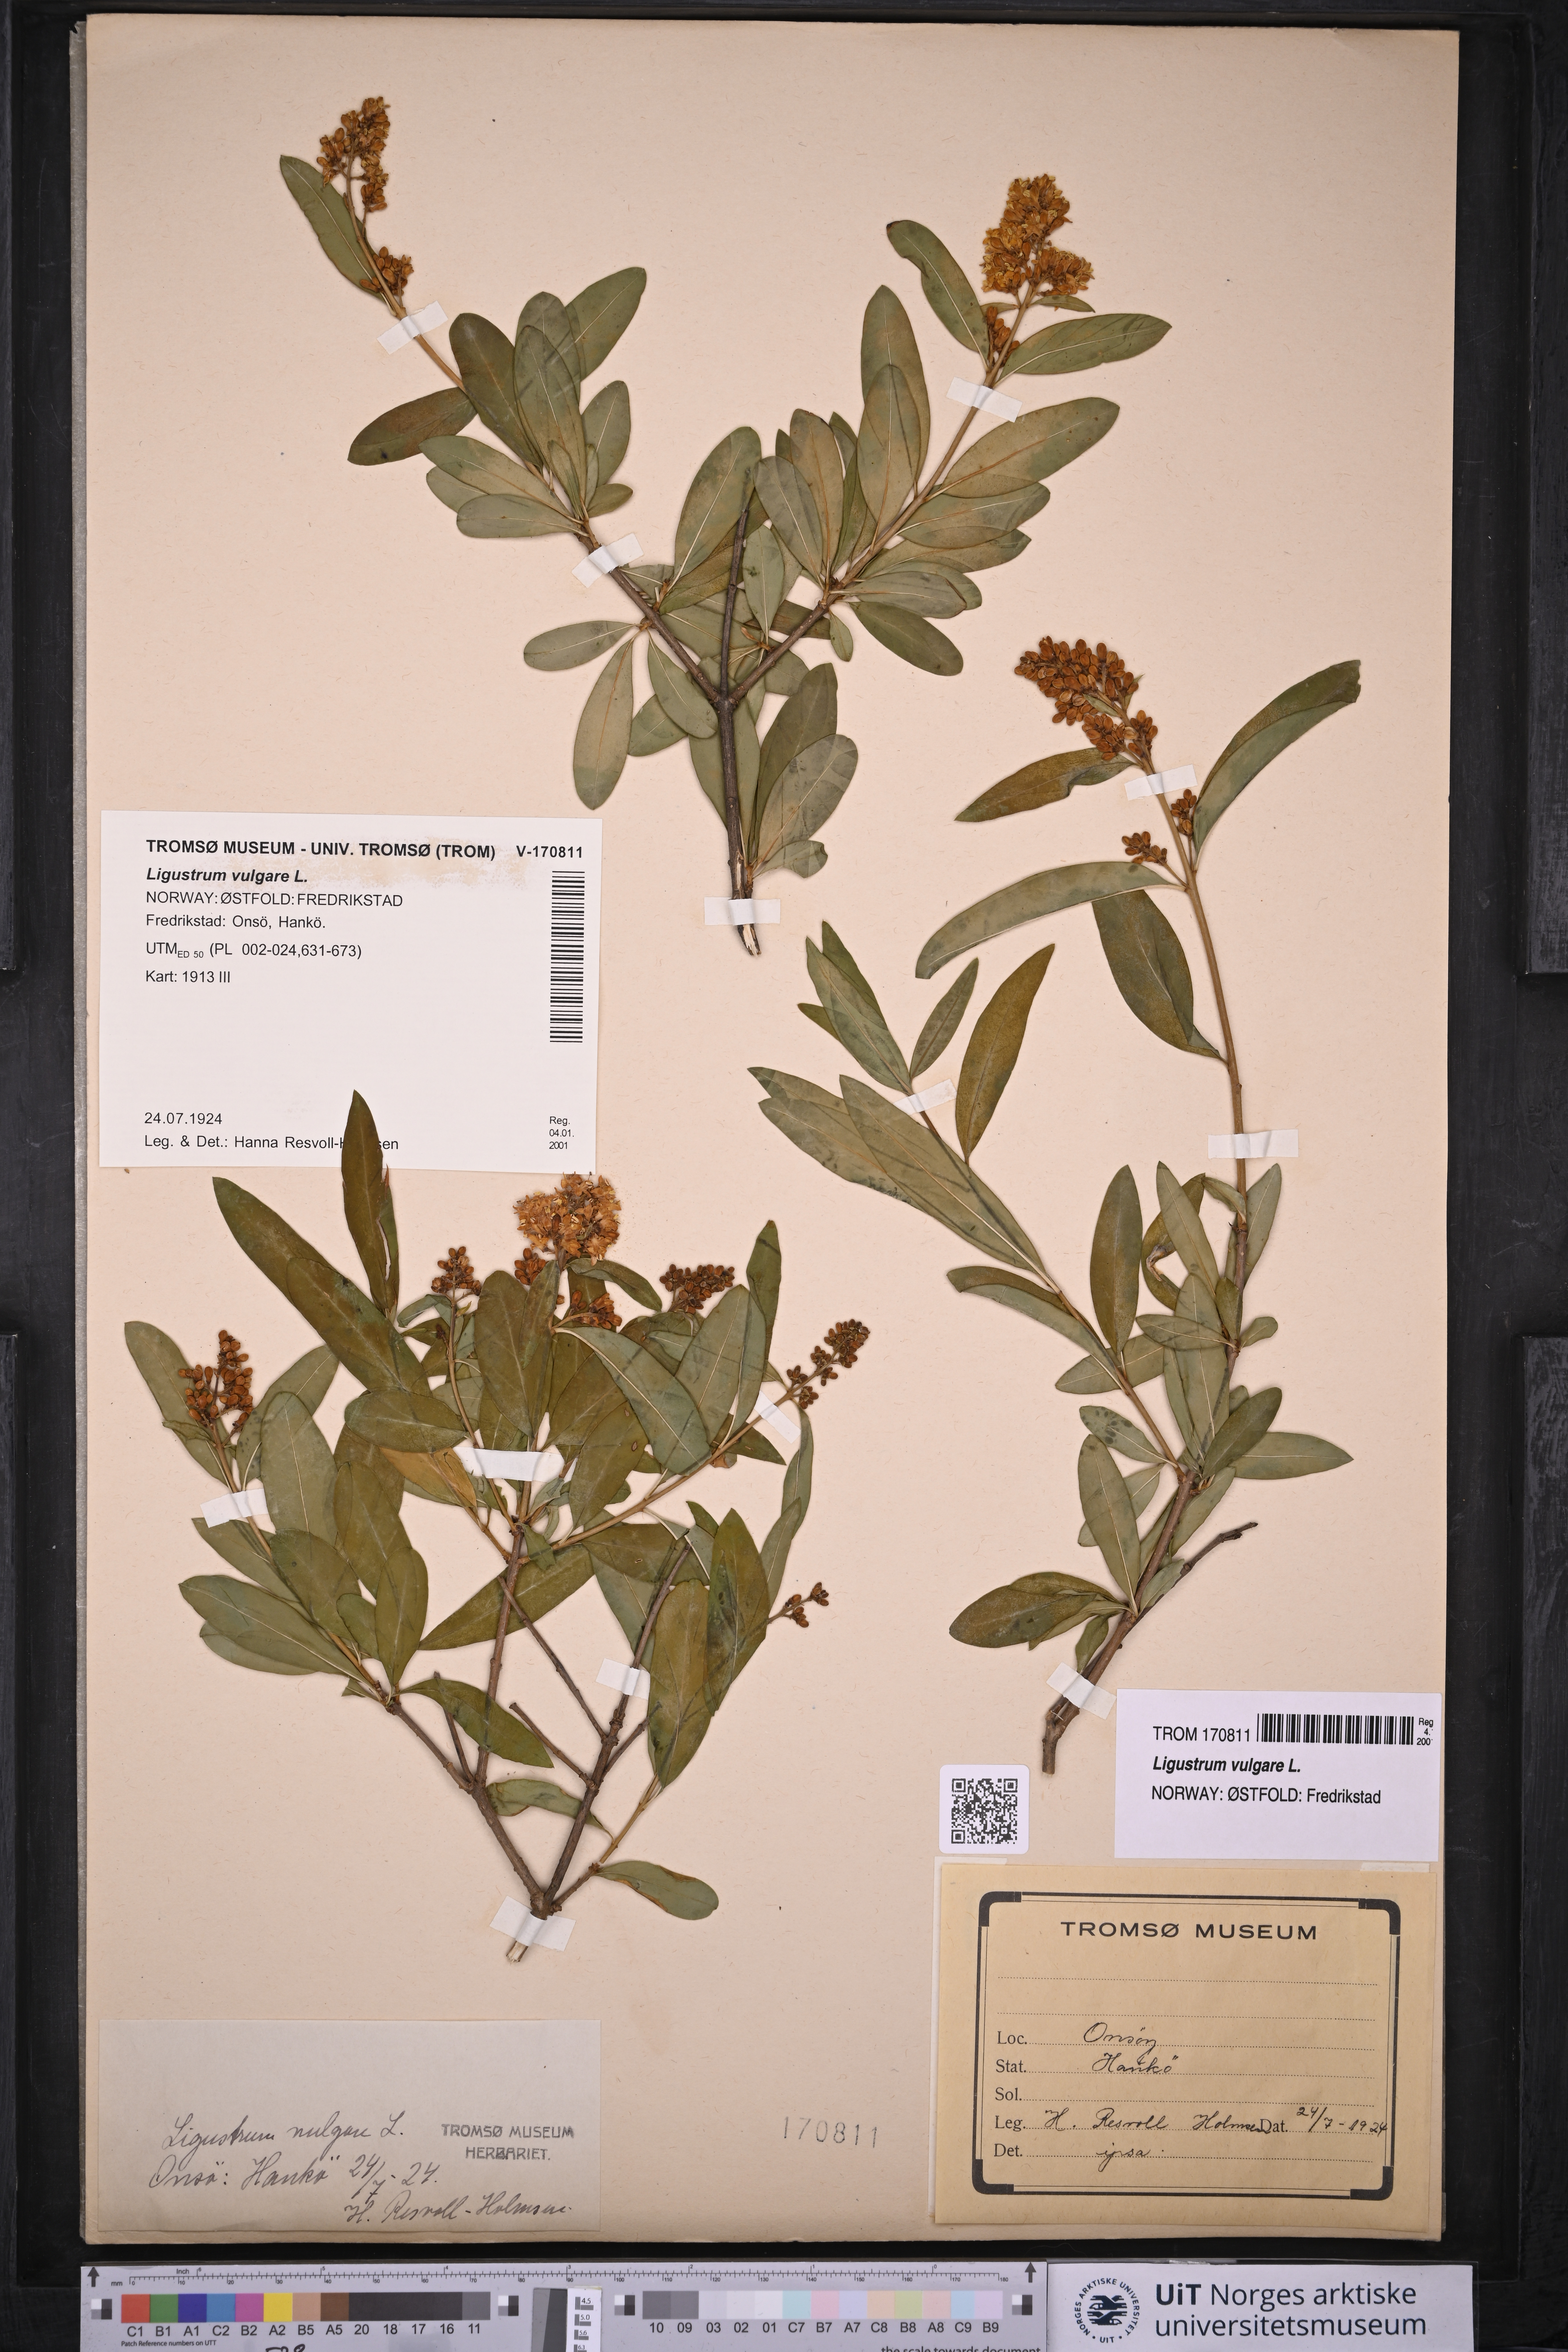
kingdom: Plantae
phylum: Tracheophyta
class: Magnoliopsida
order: Lamiales
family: Oleaceae
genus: Ligustrum
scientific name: Ligustrum vulgare
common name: Wild privet
